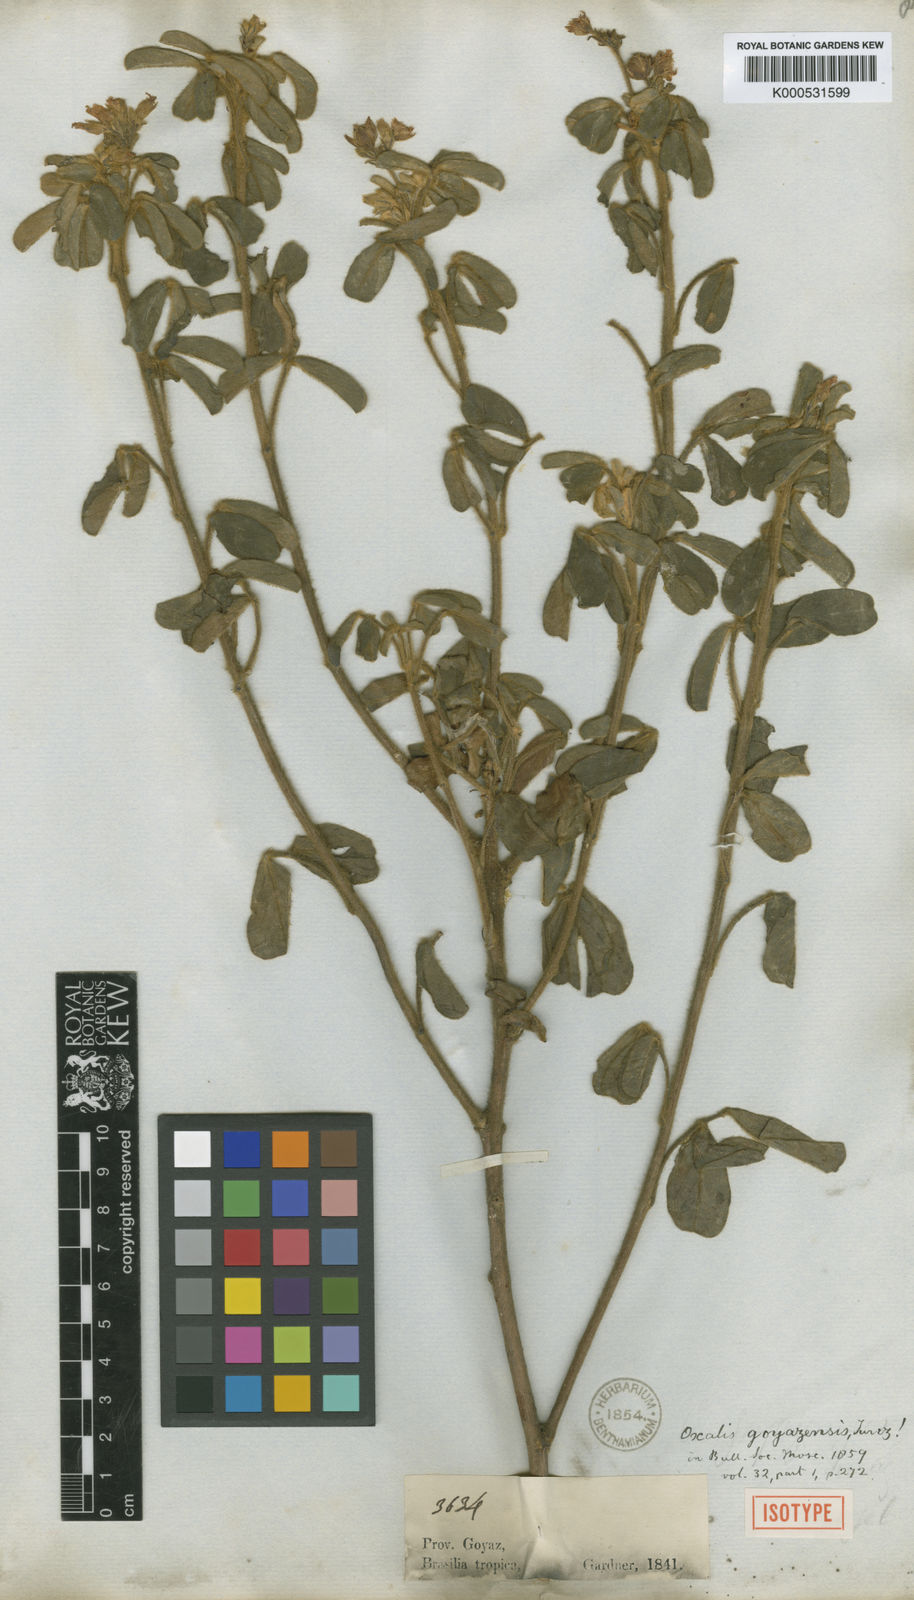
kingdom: Plantae
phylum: Tracheophyta
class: Magnoliopsida
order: Oxalidales
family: Oxalidaceae
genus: Oxalis
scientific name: Oxalis goyazensis
